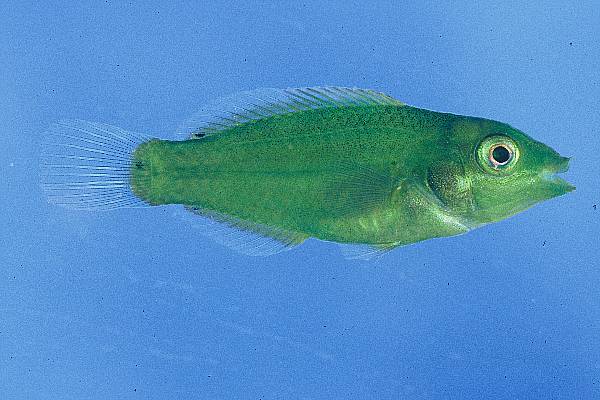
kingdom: Animalia
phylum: Chordata
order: Perciformes
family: Labridae
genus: Stethojulis
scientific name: Stethojulis strigiventer
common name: Three-ribbon wrasse
